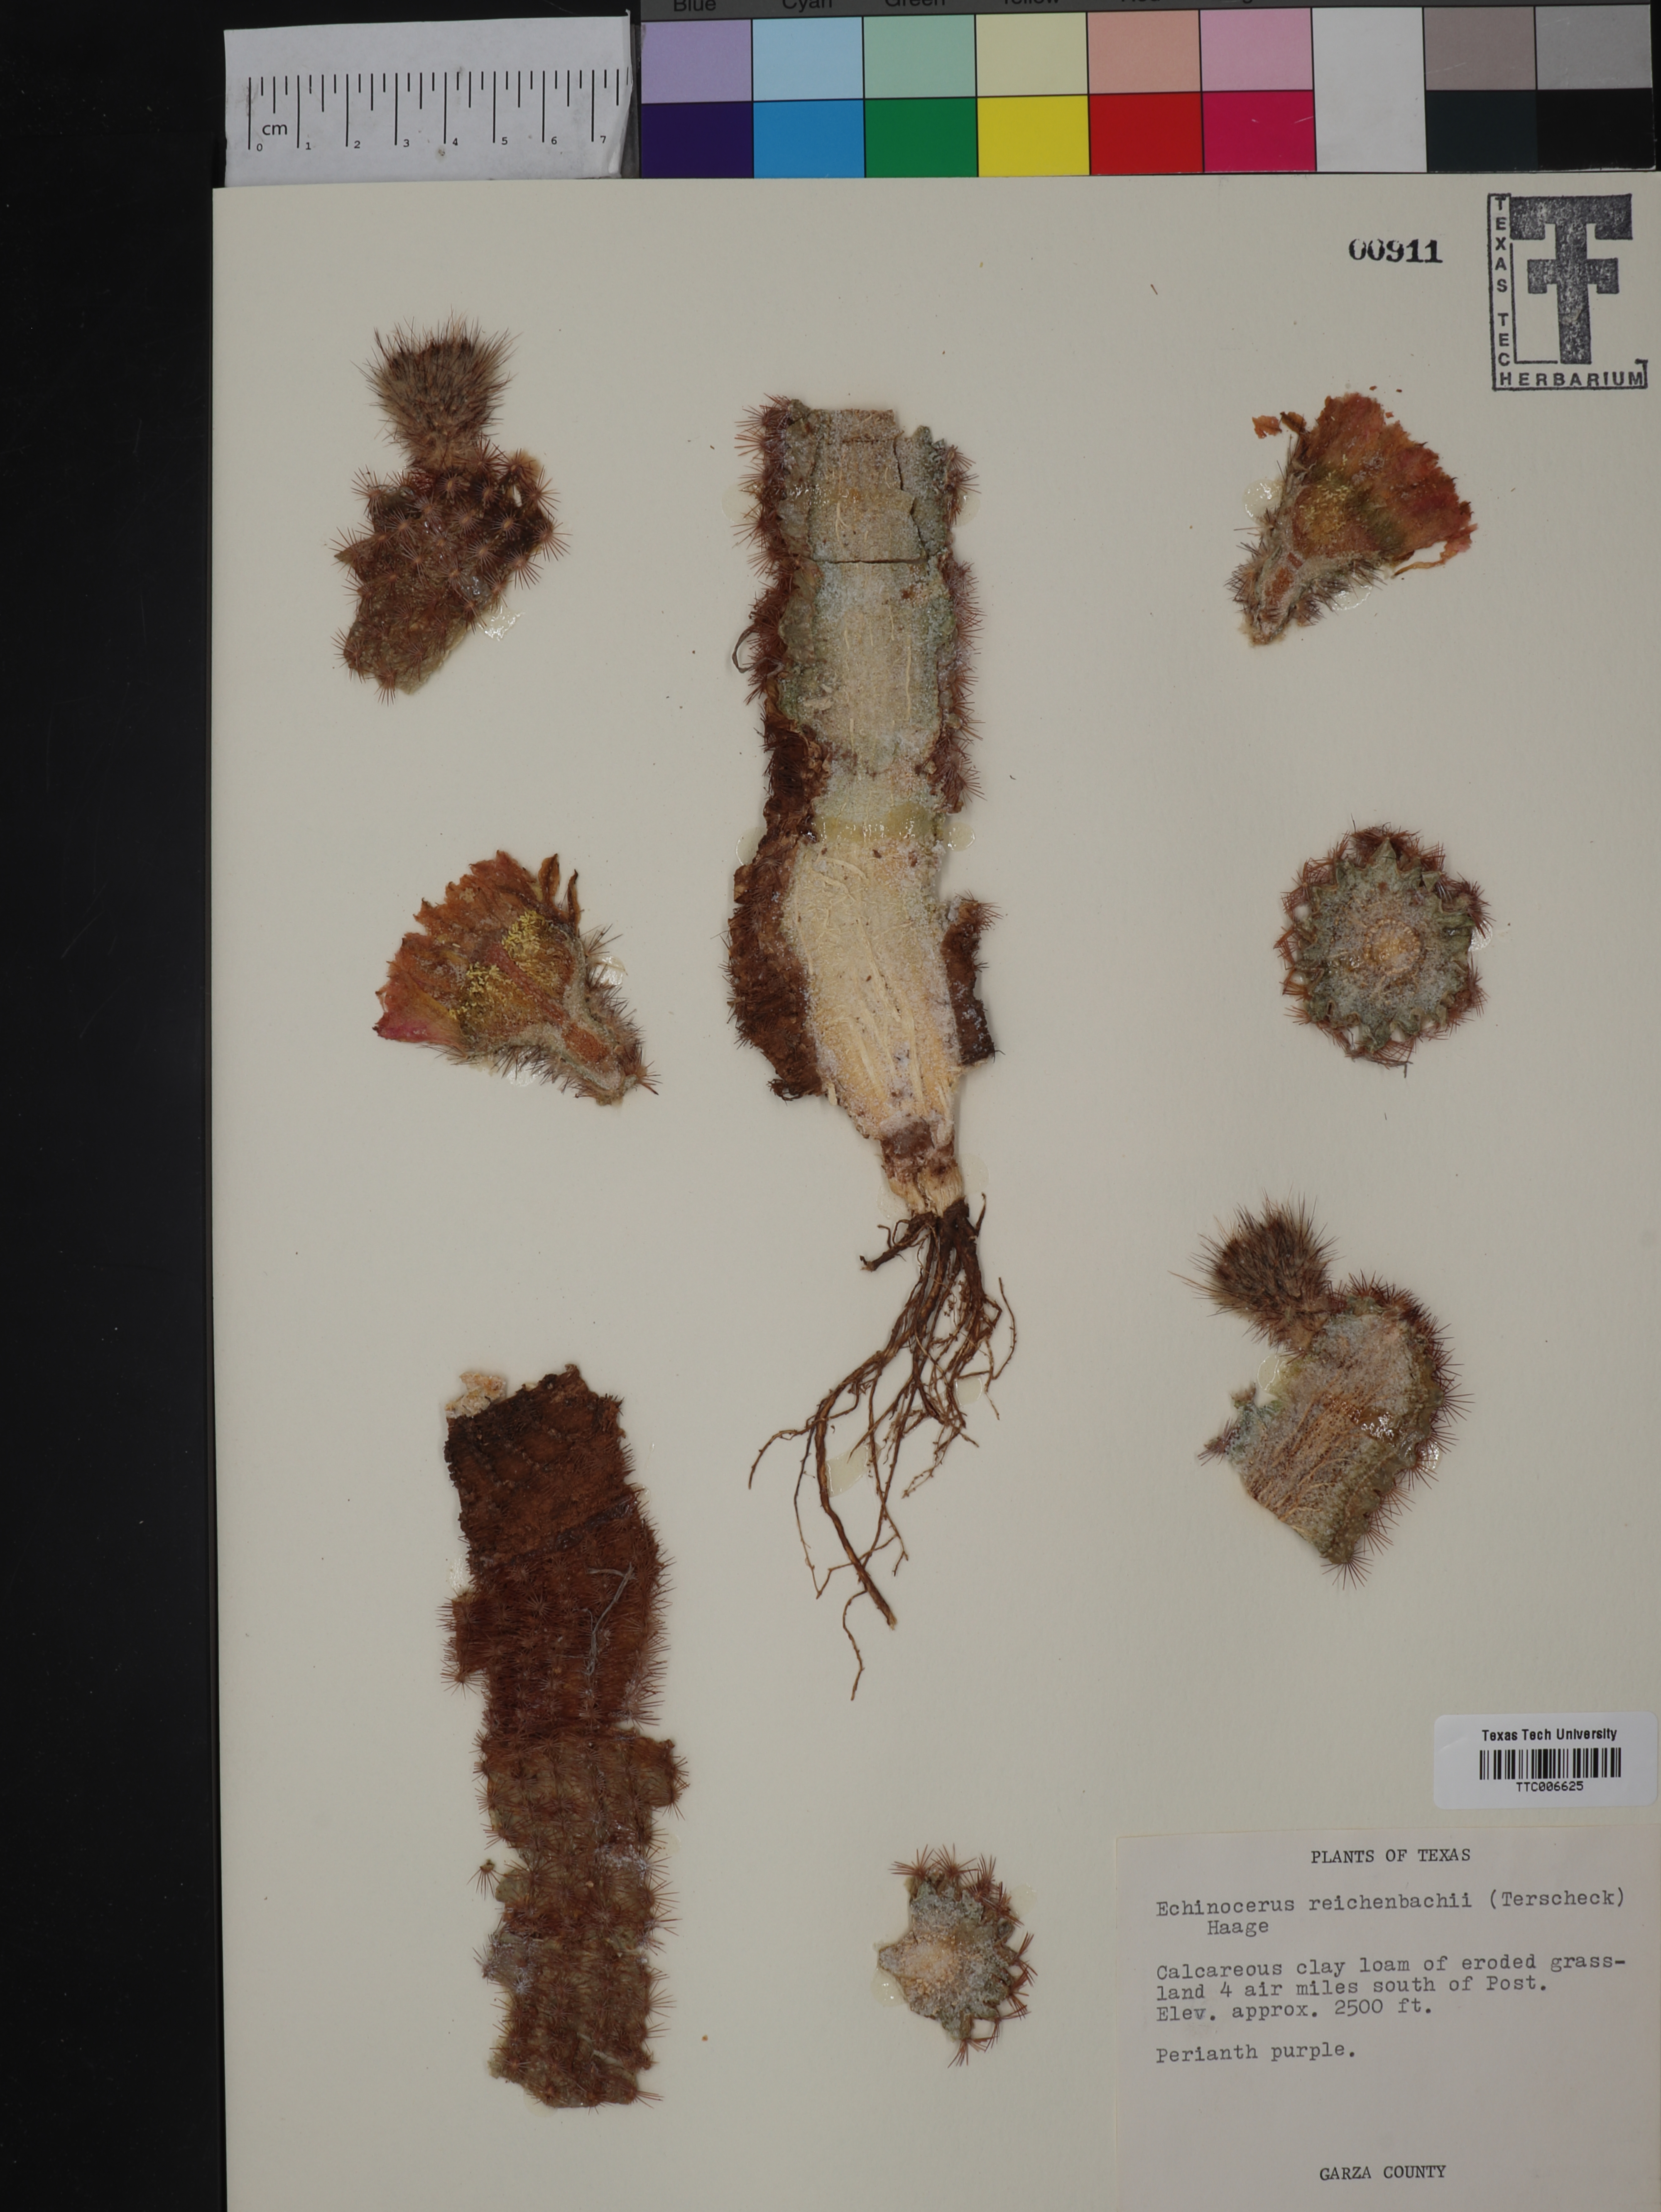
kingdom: Plantae
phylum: Tracheophyta
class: Magnoliopsida
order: Caryophyllales
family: Cactaceae
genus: Echinocereus
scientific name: Echinocereus reichenbachii
